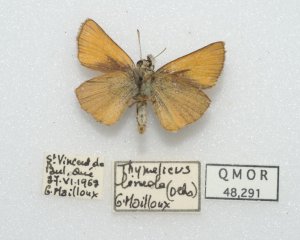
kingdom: Animalia
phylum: Arthropoda
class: Insecta
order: Lepidoptera
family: Hesperiidae
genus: Thymelicus
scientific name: Thymelicus lineola
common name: European Skipper
